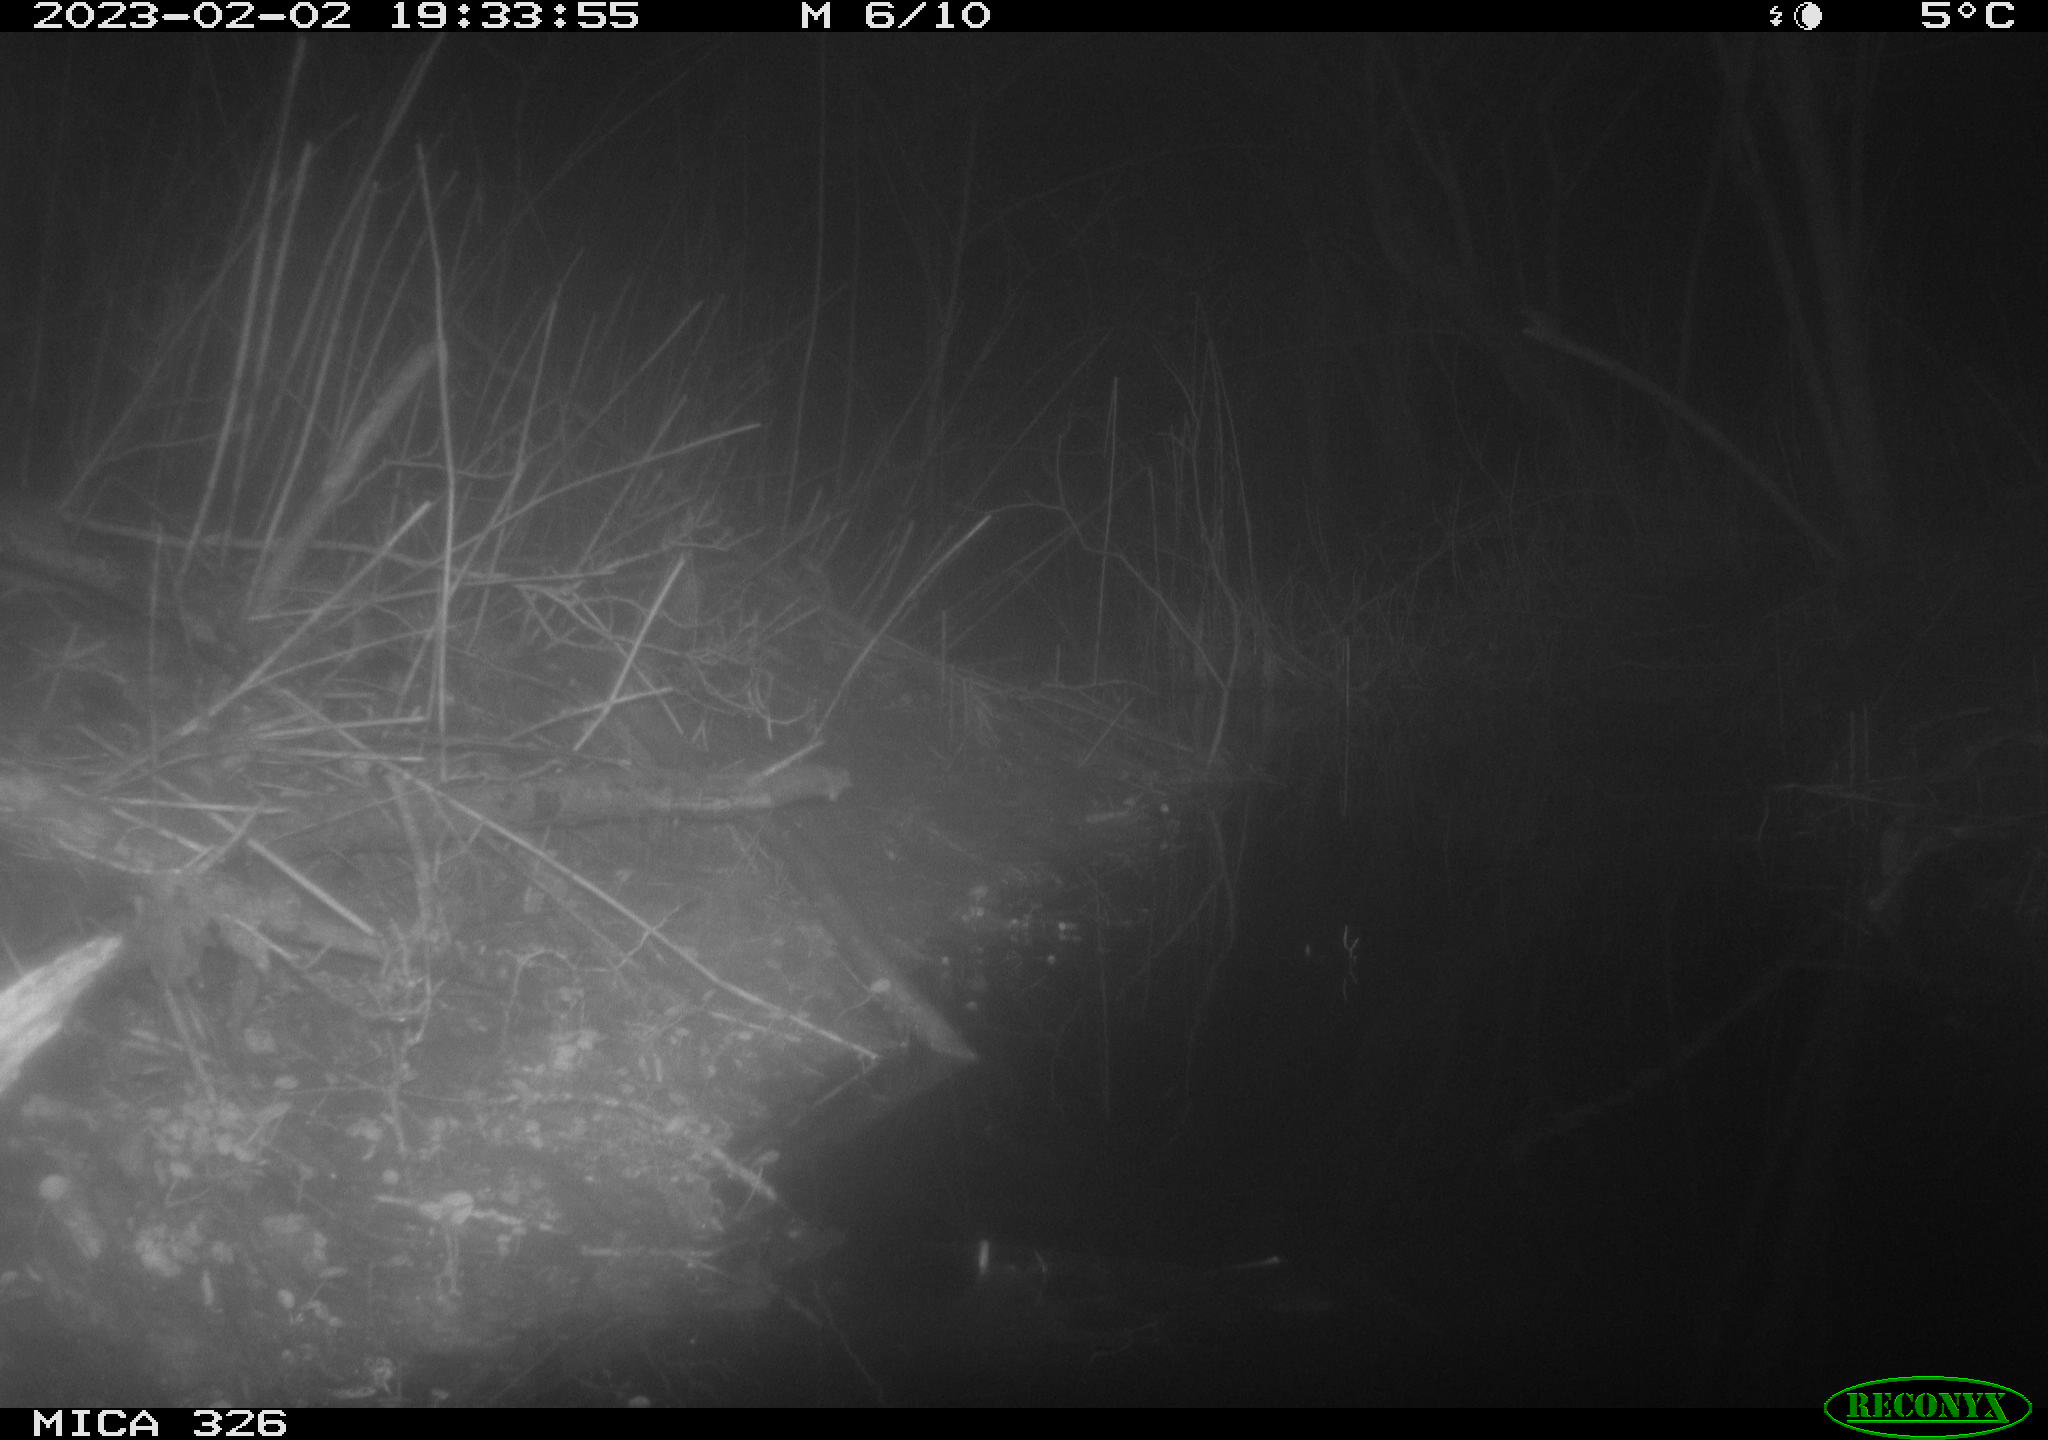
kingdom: Animalia
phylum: Chordata
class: Mammalia
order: Rodentia
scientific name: Rodentia
